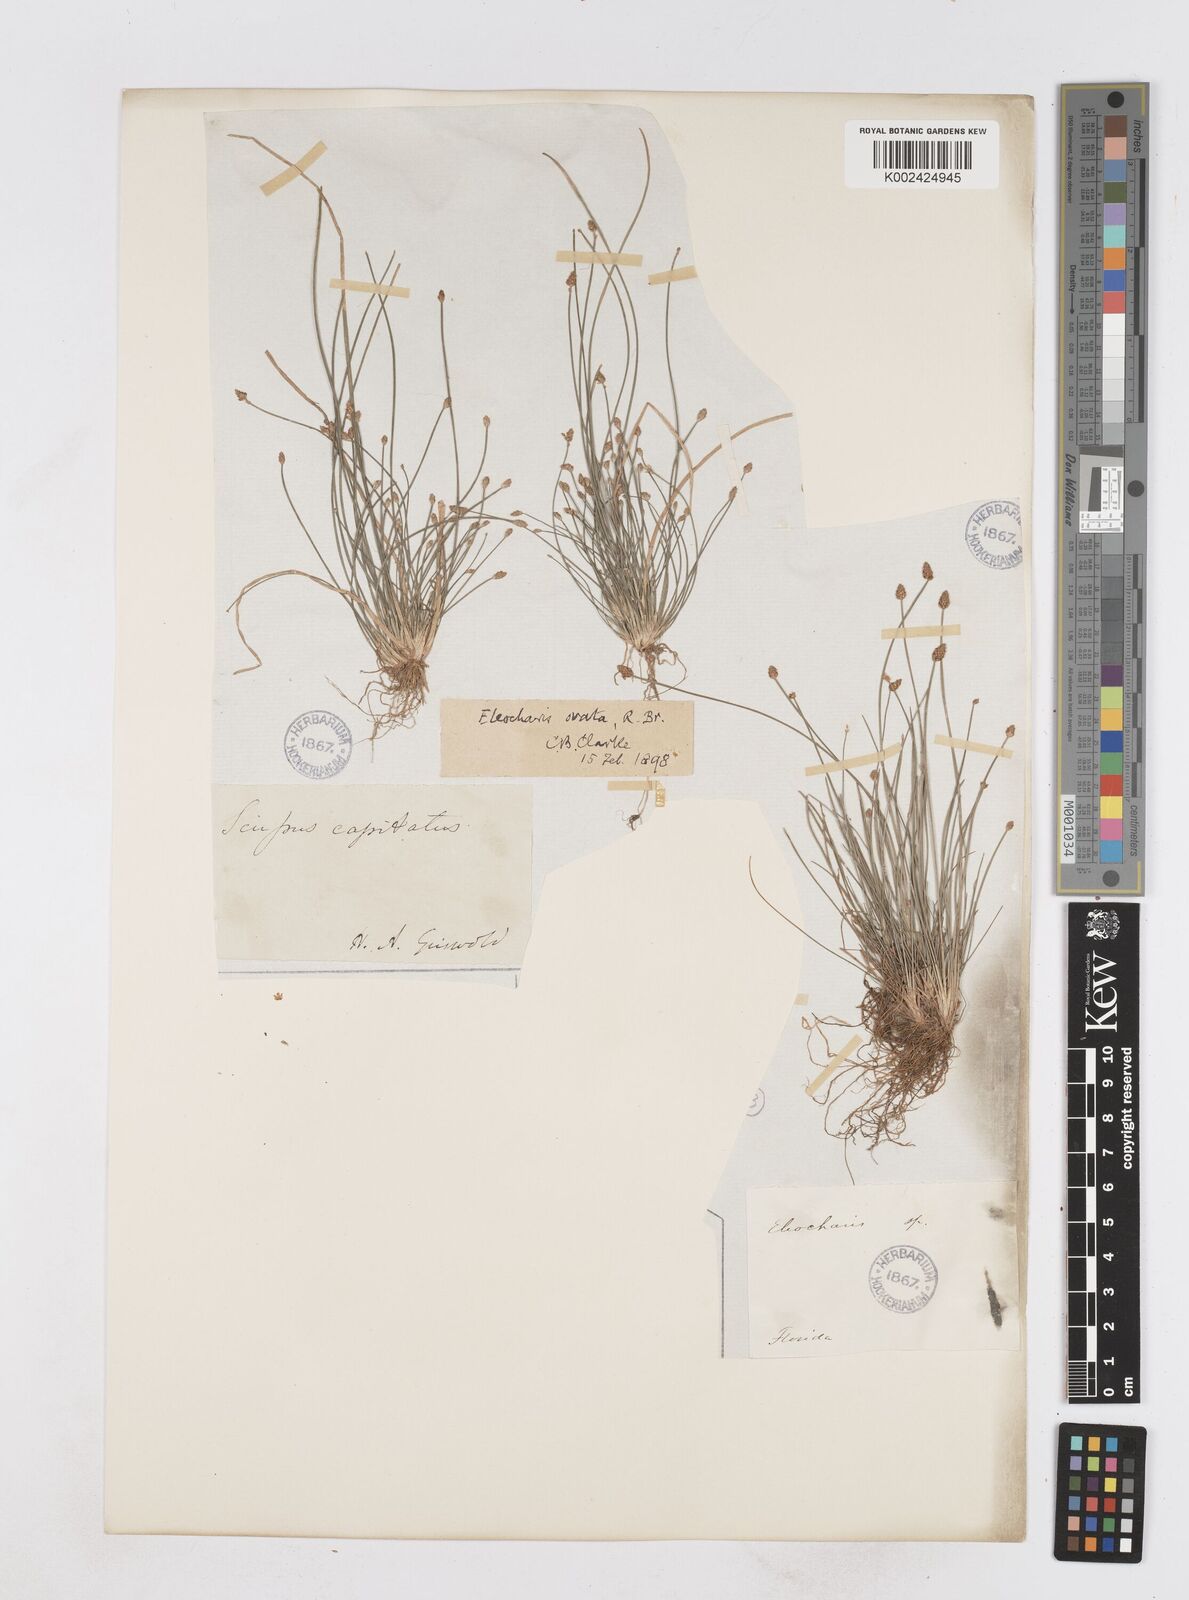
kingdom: Plantae
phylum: Tracheophyta
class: Liliopsida
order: Poales
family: Cyperaceae
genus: Eleocharis
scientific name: Eleocharis ovata
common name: Oval spike-rush
